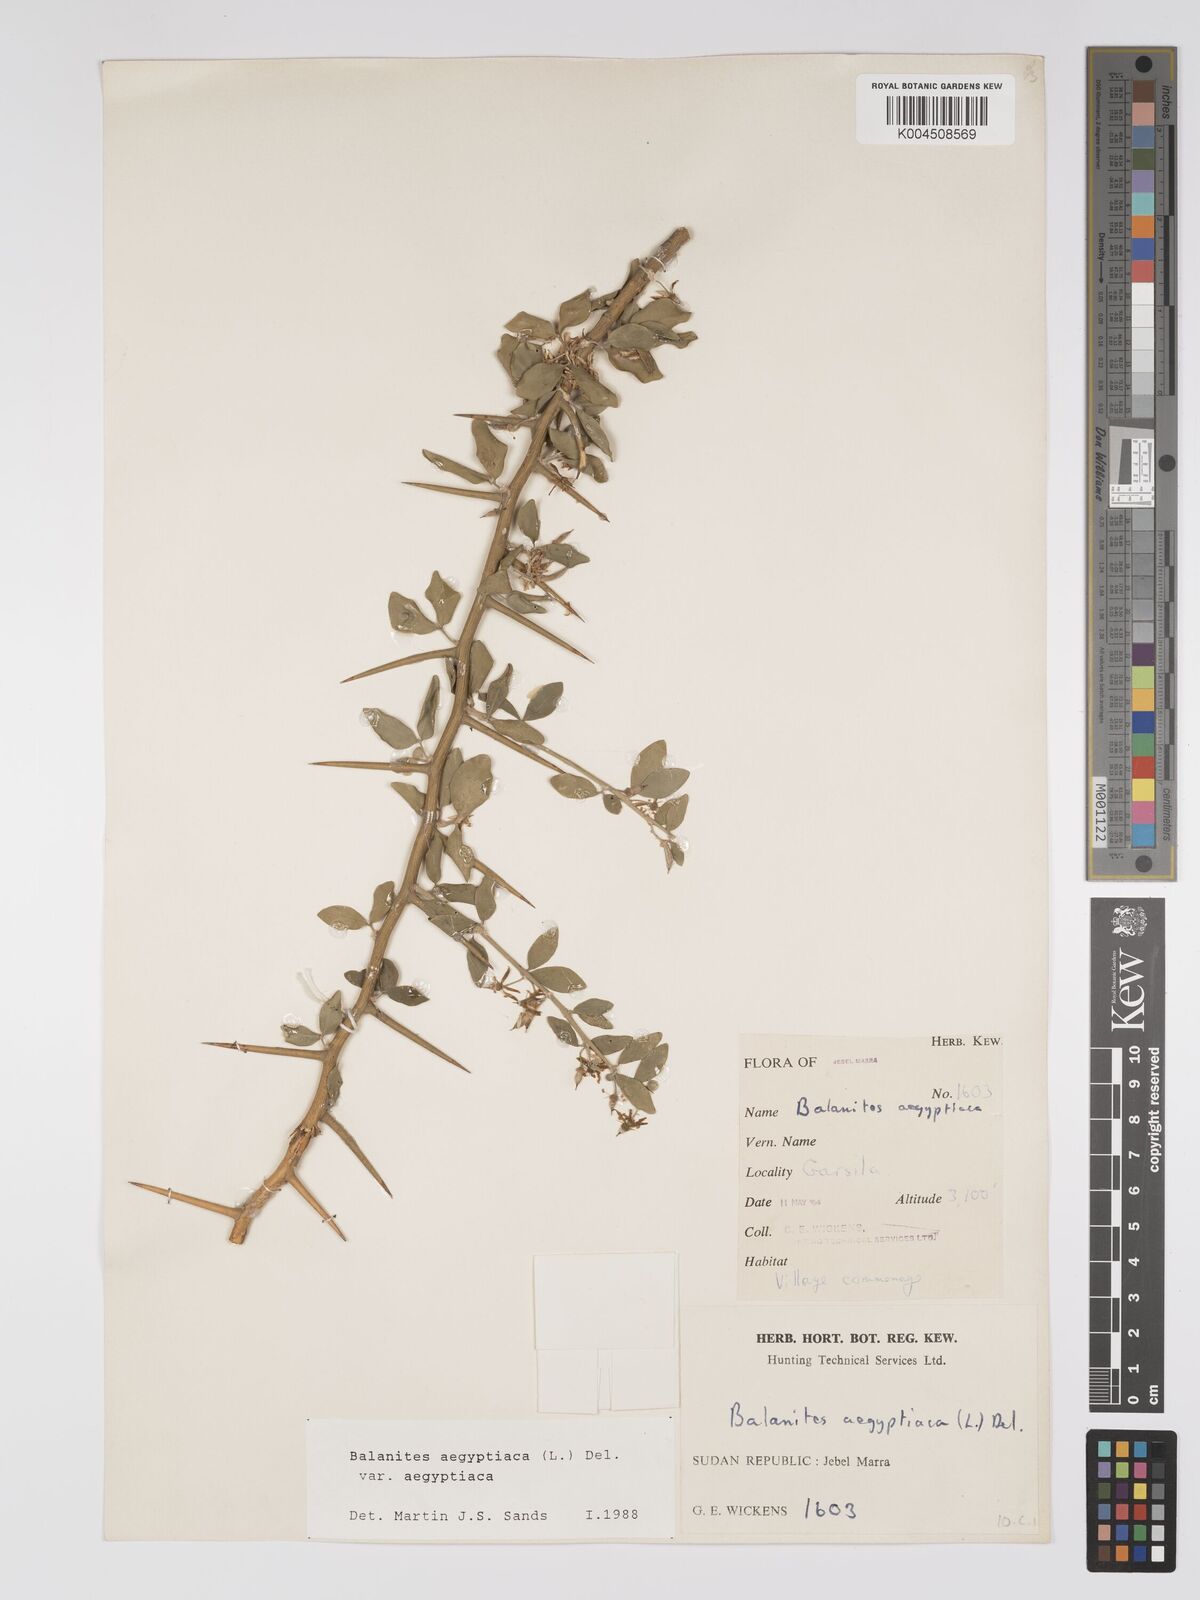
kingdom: Plantae
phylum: Tracheophyta
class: Magnoliopsida
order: Zygophyllales
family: Zygophyllaceae
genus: Balanites
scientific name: Balanites aegyptiaca
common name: Balanites
